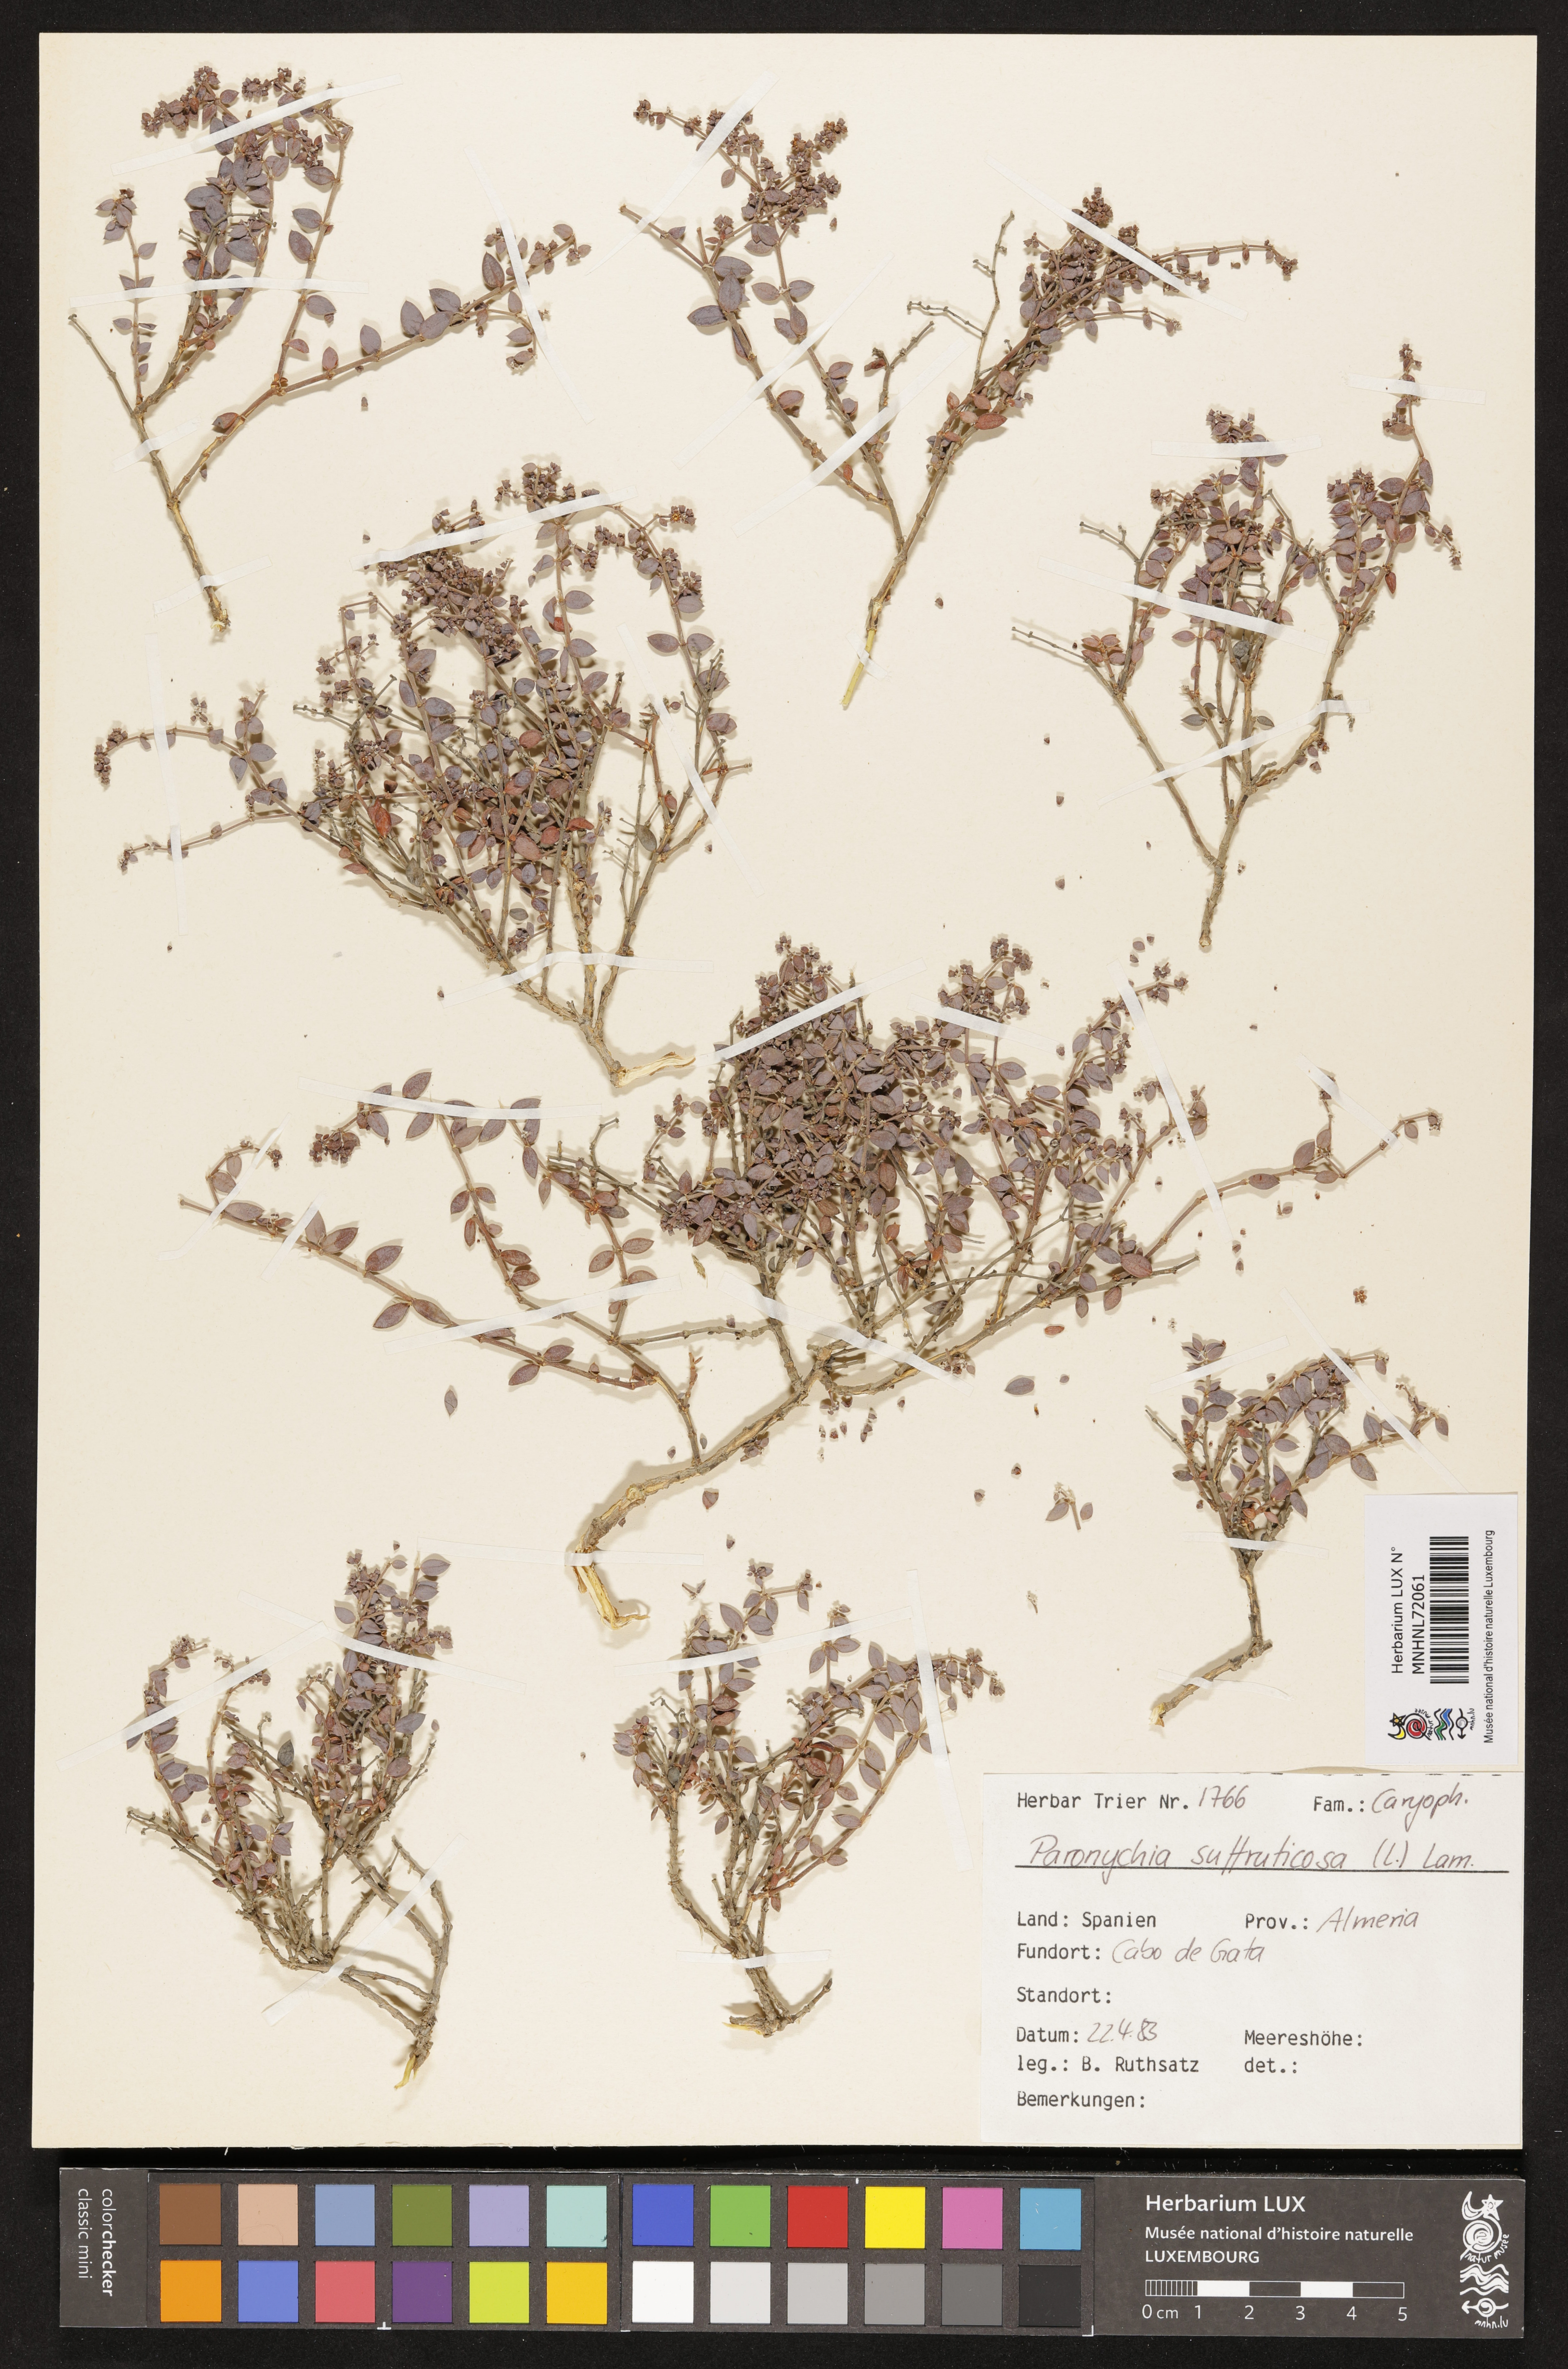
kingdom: Plantae
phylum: Tracheophyta
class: Magnoliopsida
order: Caryophyllales
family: Caryophyllaceae
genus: Paronychia
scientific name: Paronychia suffruticosa
